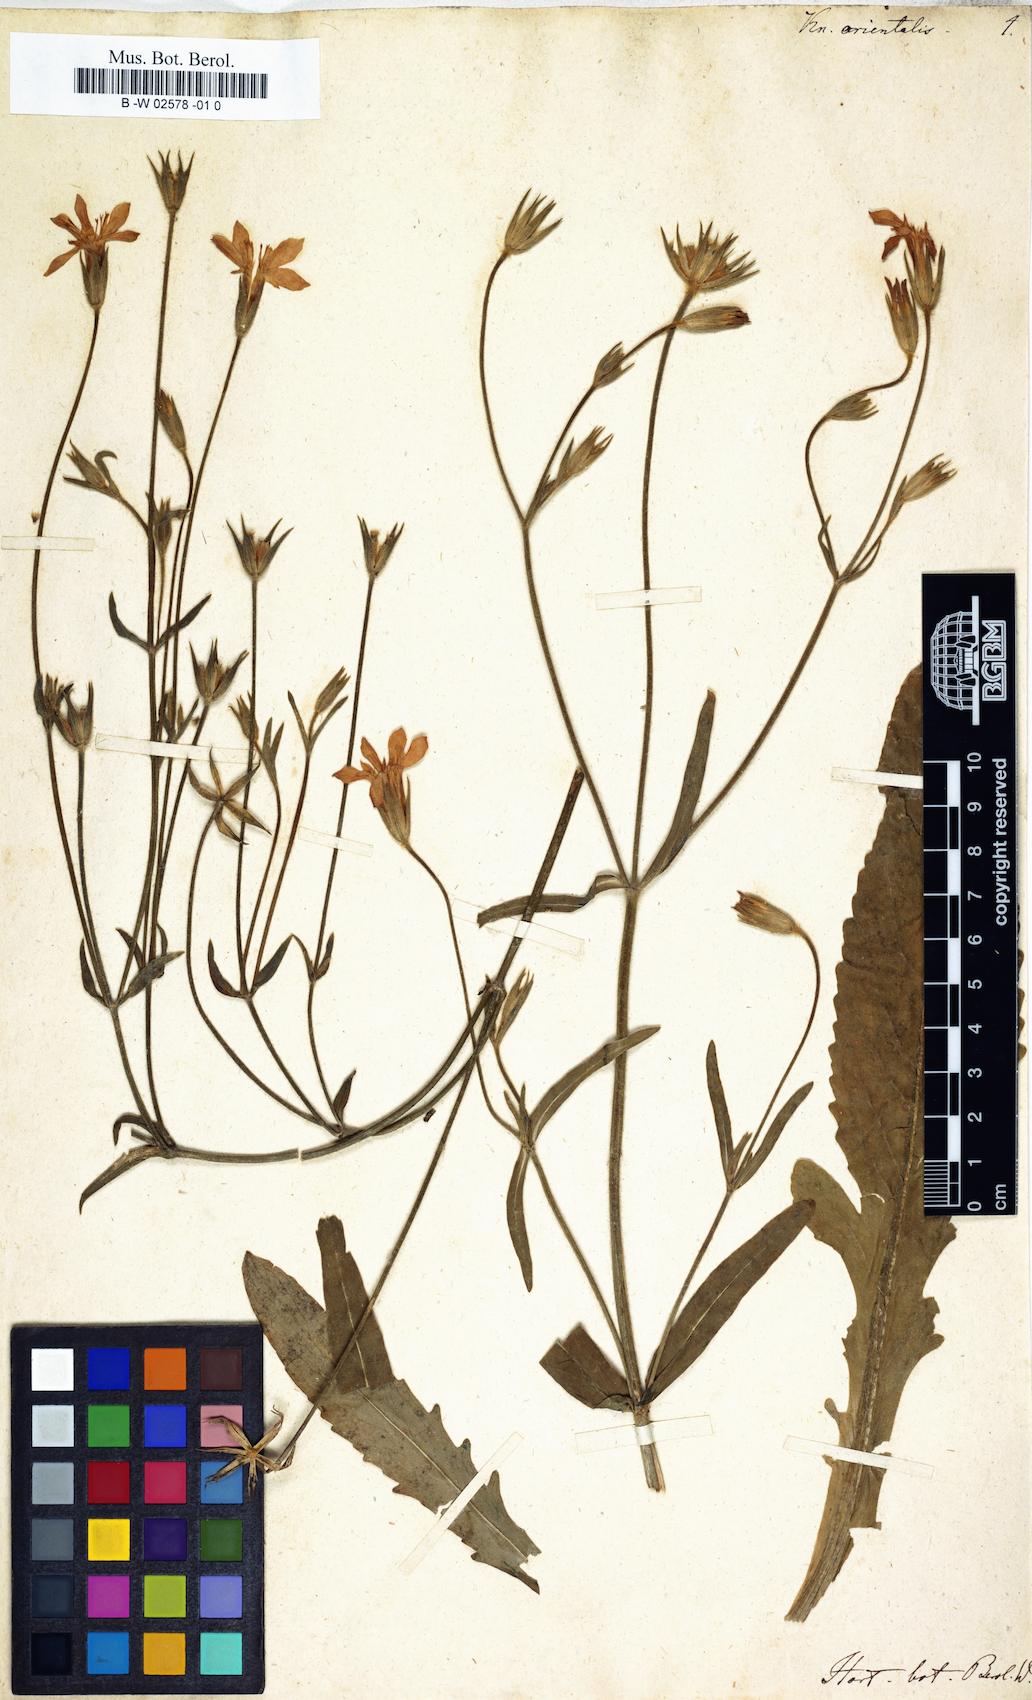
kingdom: Plantae
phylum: Tracheophyta
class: Magnoliopsida
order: Dipsacales
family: Caprifoliaceae
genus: Knautia
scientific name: Knautia orientalis
